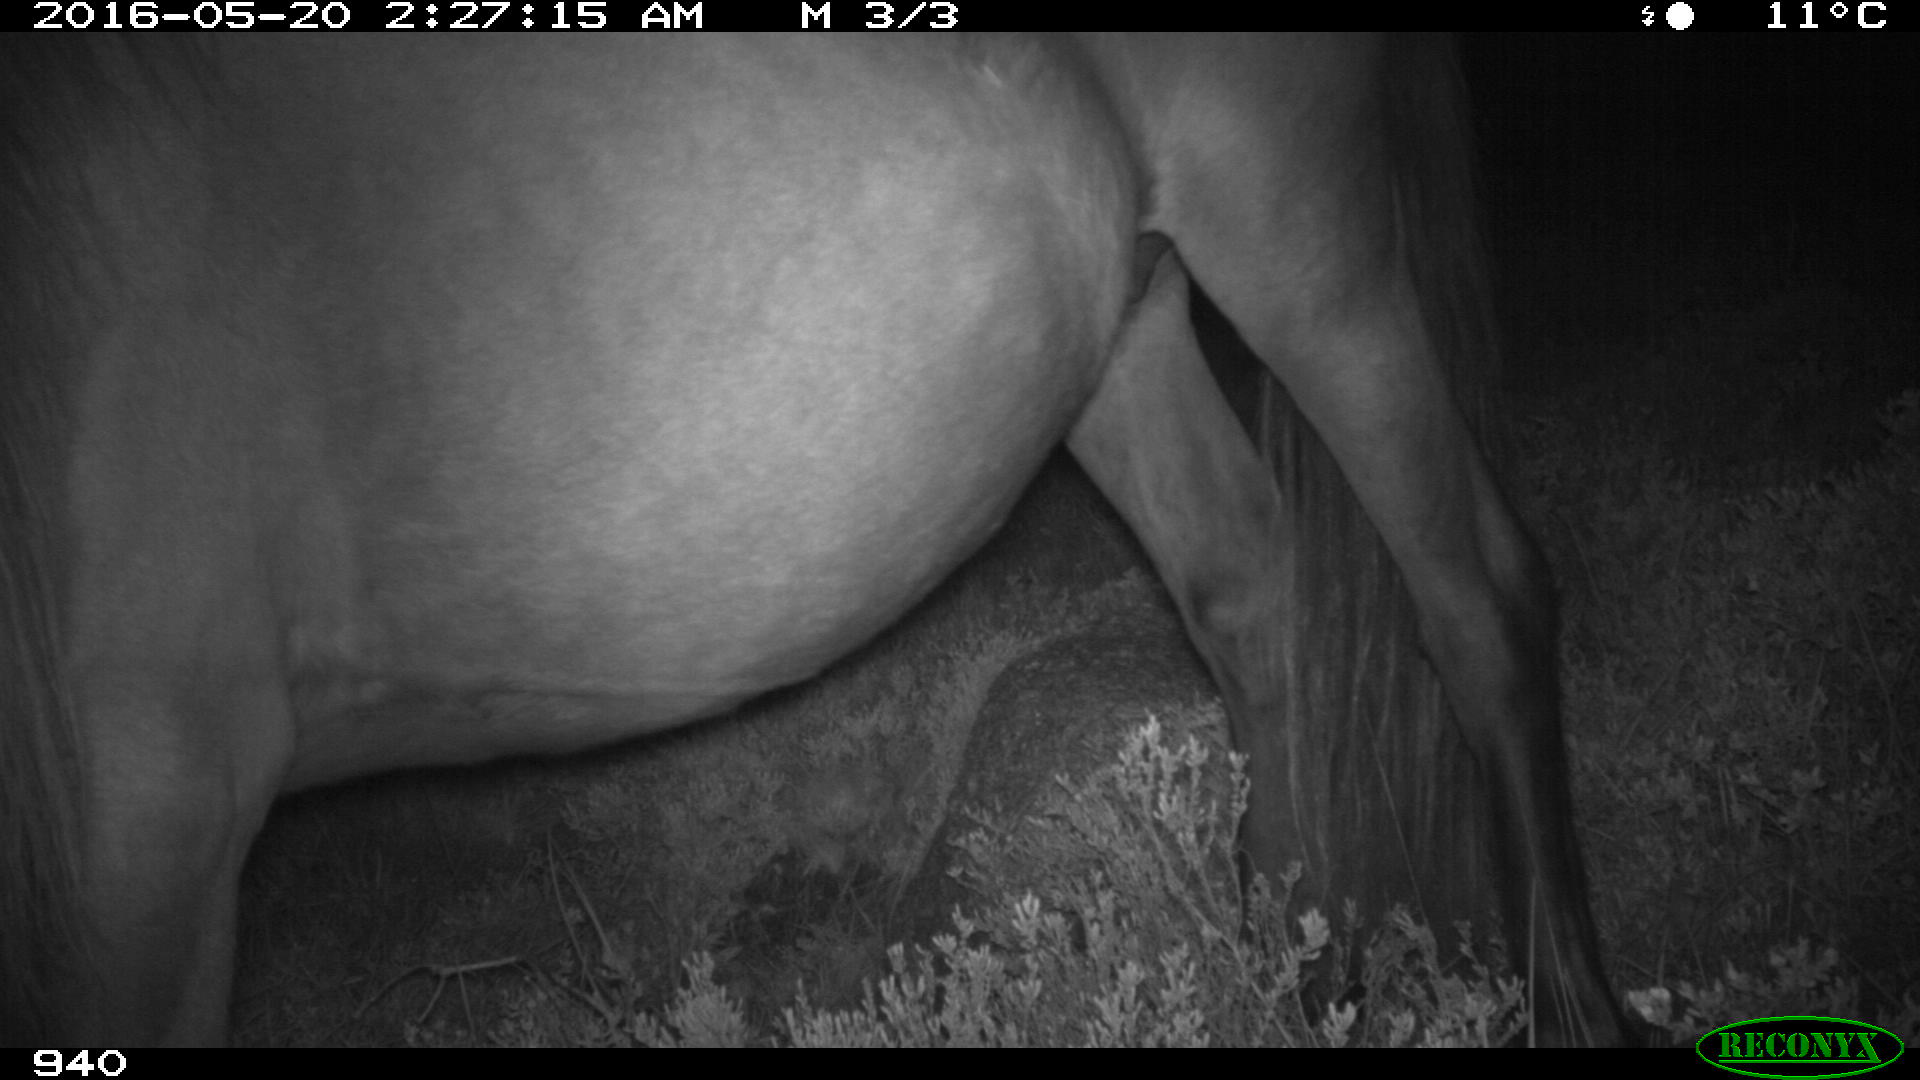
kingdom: Animalia
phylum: Chordata
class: Mammalia
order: Perissodactyla
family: Equidae
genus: Equus
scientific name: Equus caballus
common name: Horse
